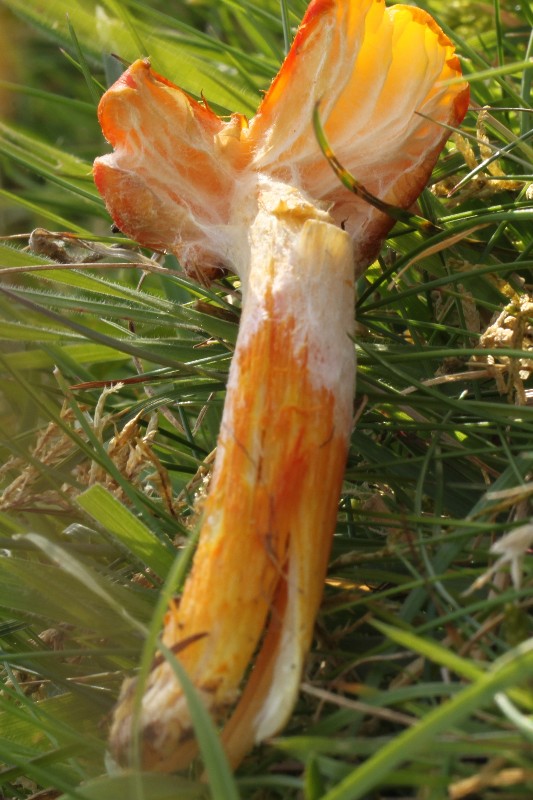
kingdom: Fungi
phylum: Basidiomycota
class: Agaricomycetes
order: Agaricales
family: Hygrophoraceae
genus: Hygrocybe
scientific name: Hygrocybe intermedia
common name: trævlet vokshat
